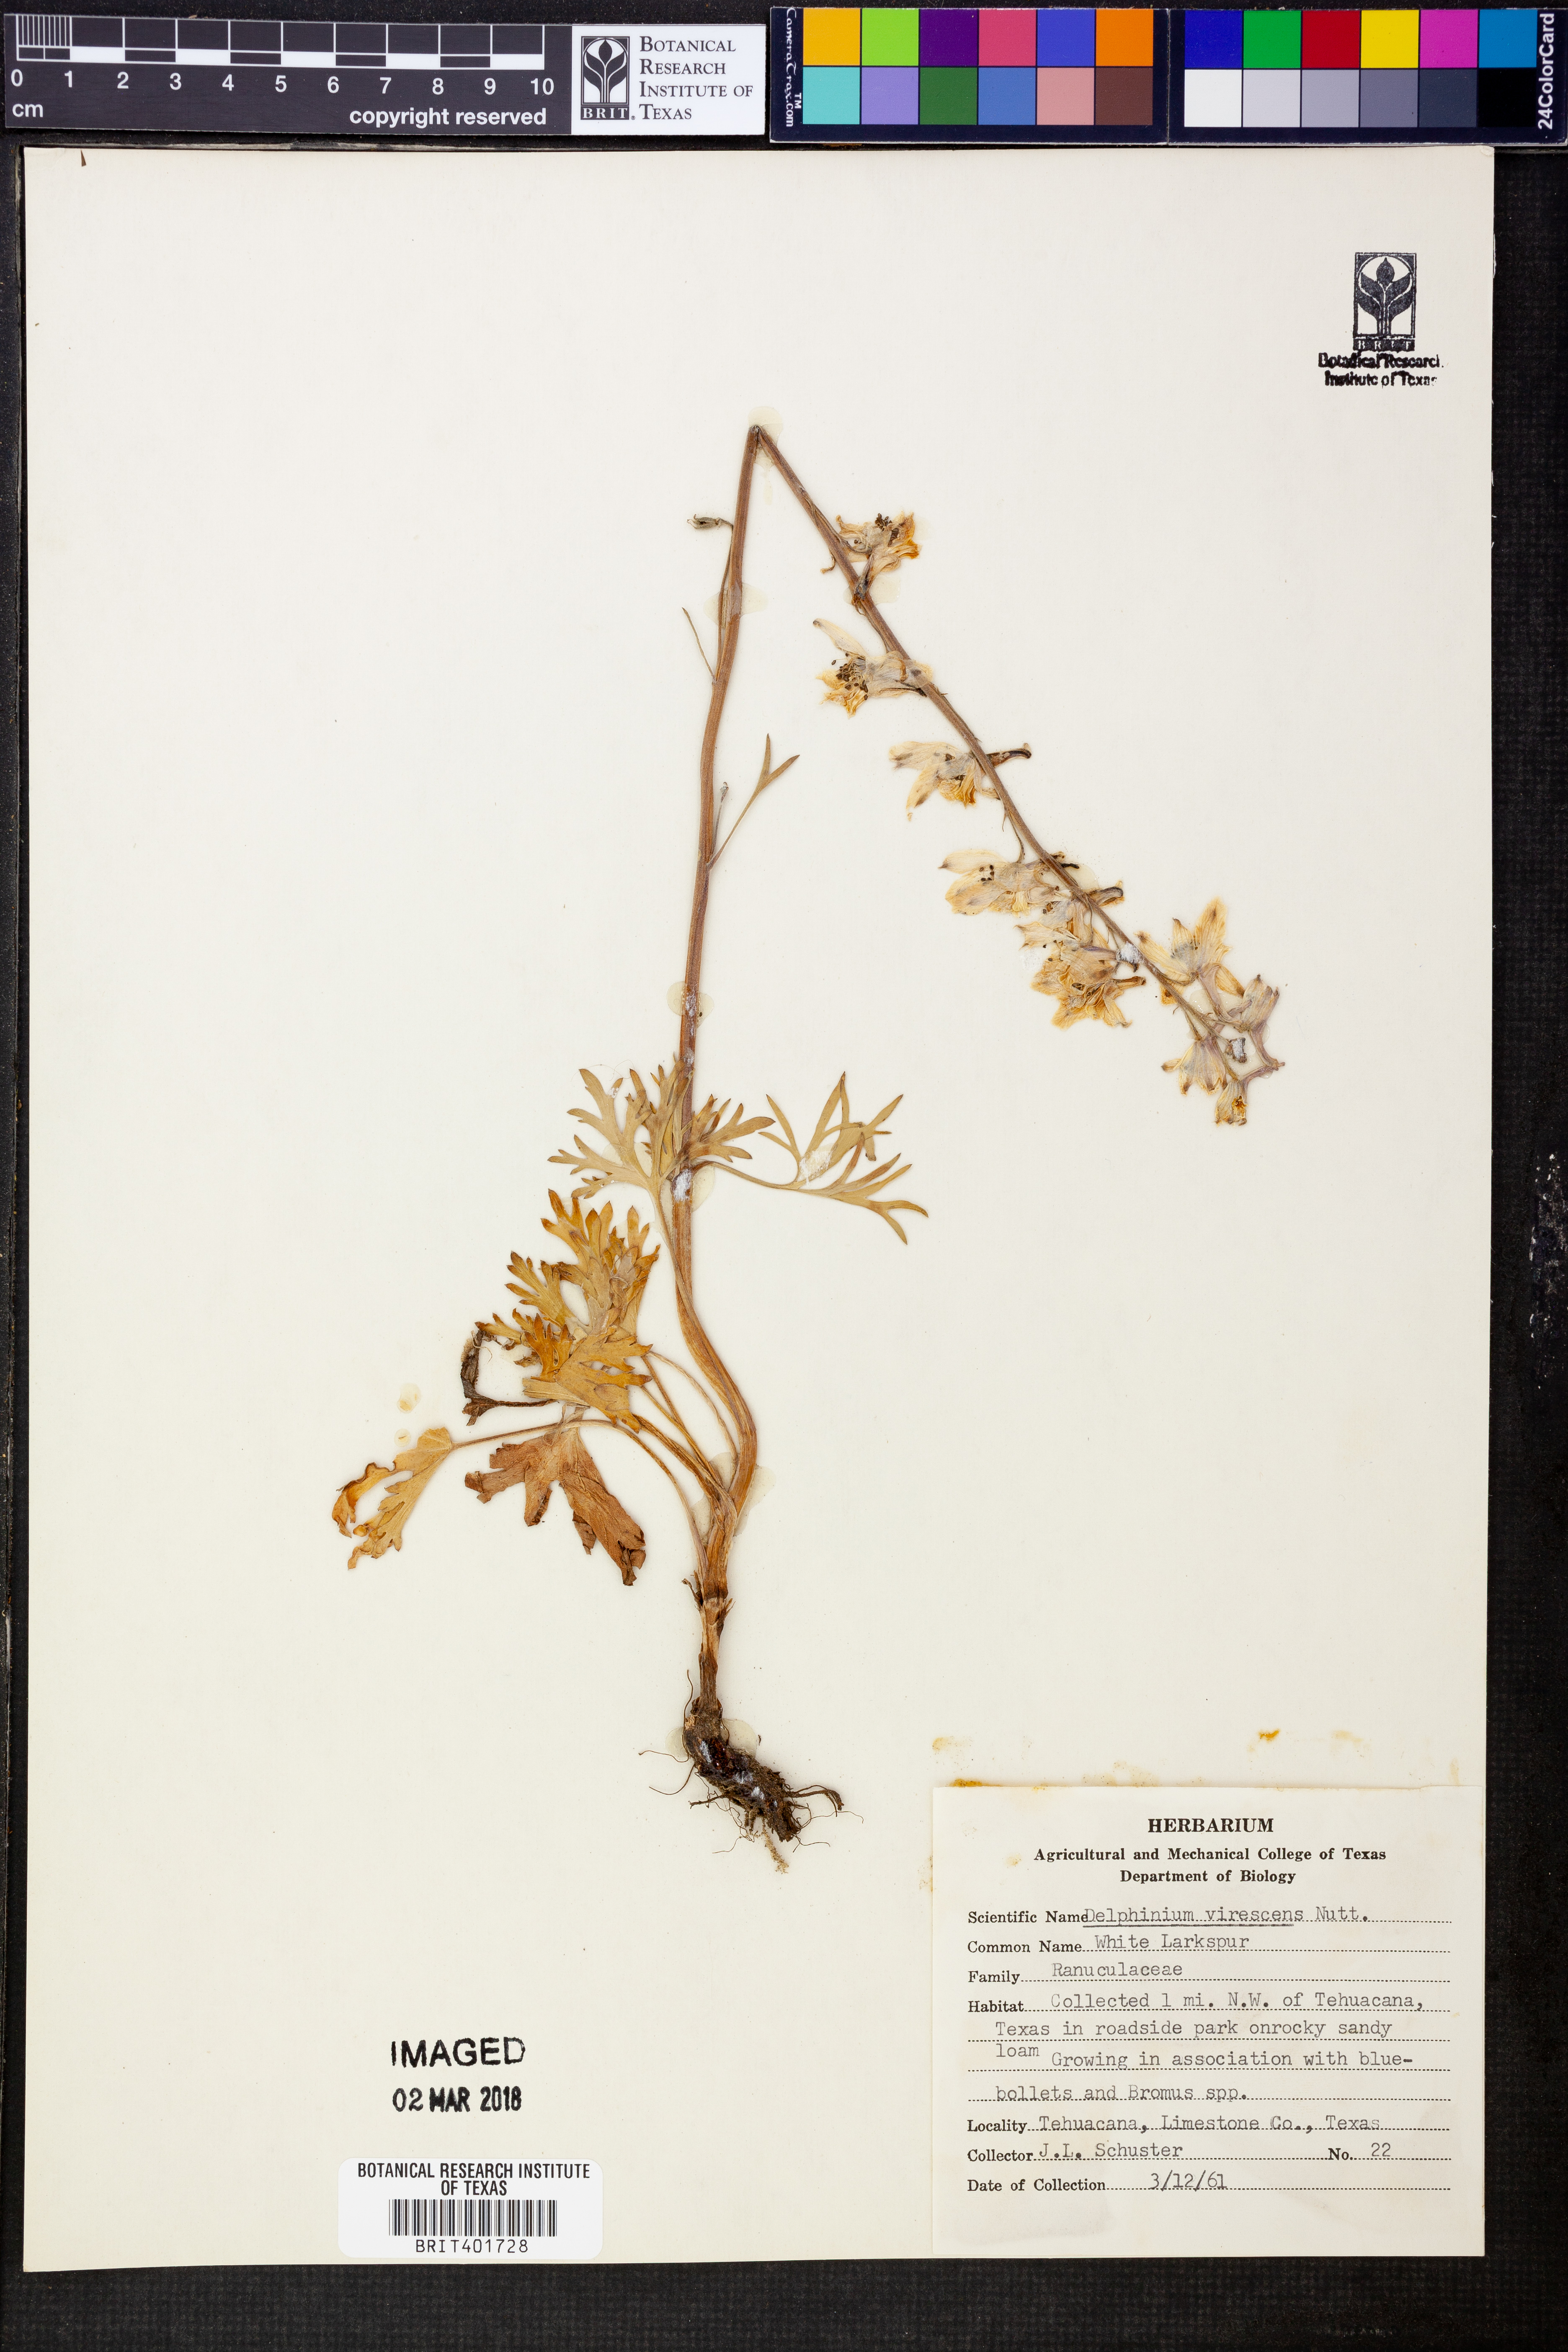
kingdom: Plantae
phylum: Tracheophyta
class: Magnoliopsida
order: Ranunculales
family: Ranunculaceae
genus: Delphinium
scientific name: Delphinium carolinianum
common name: Carolina larkspur
